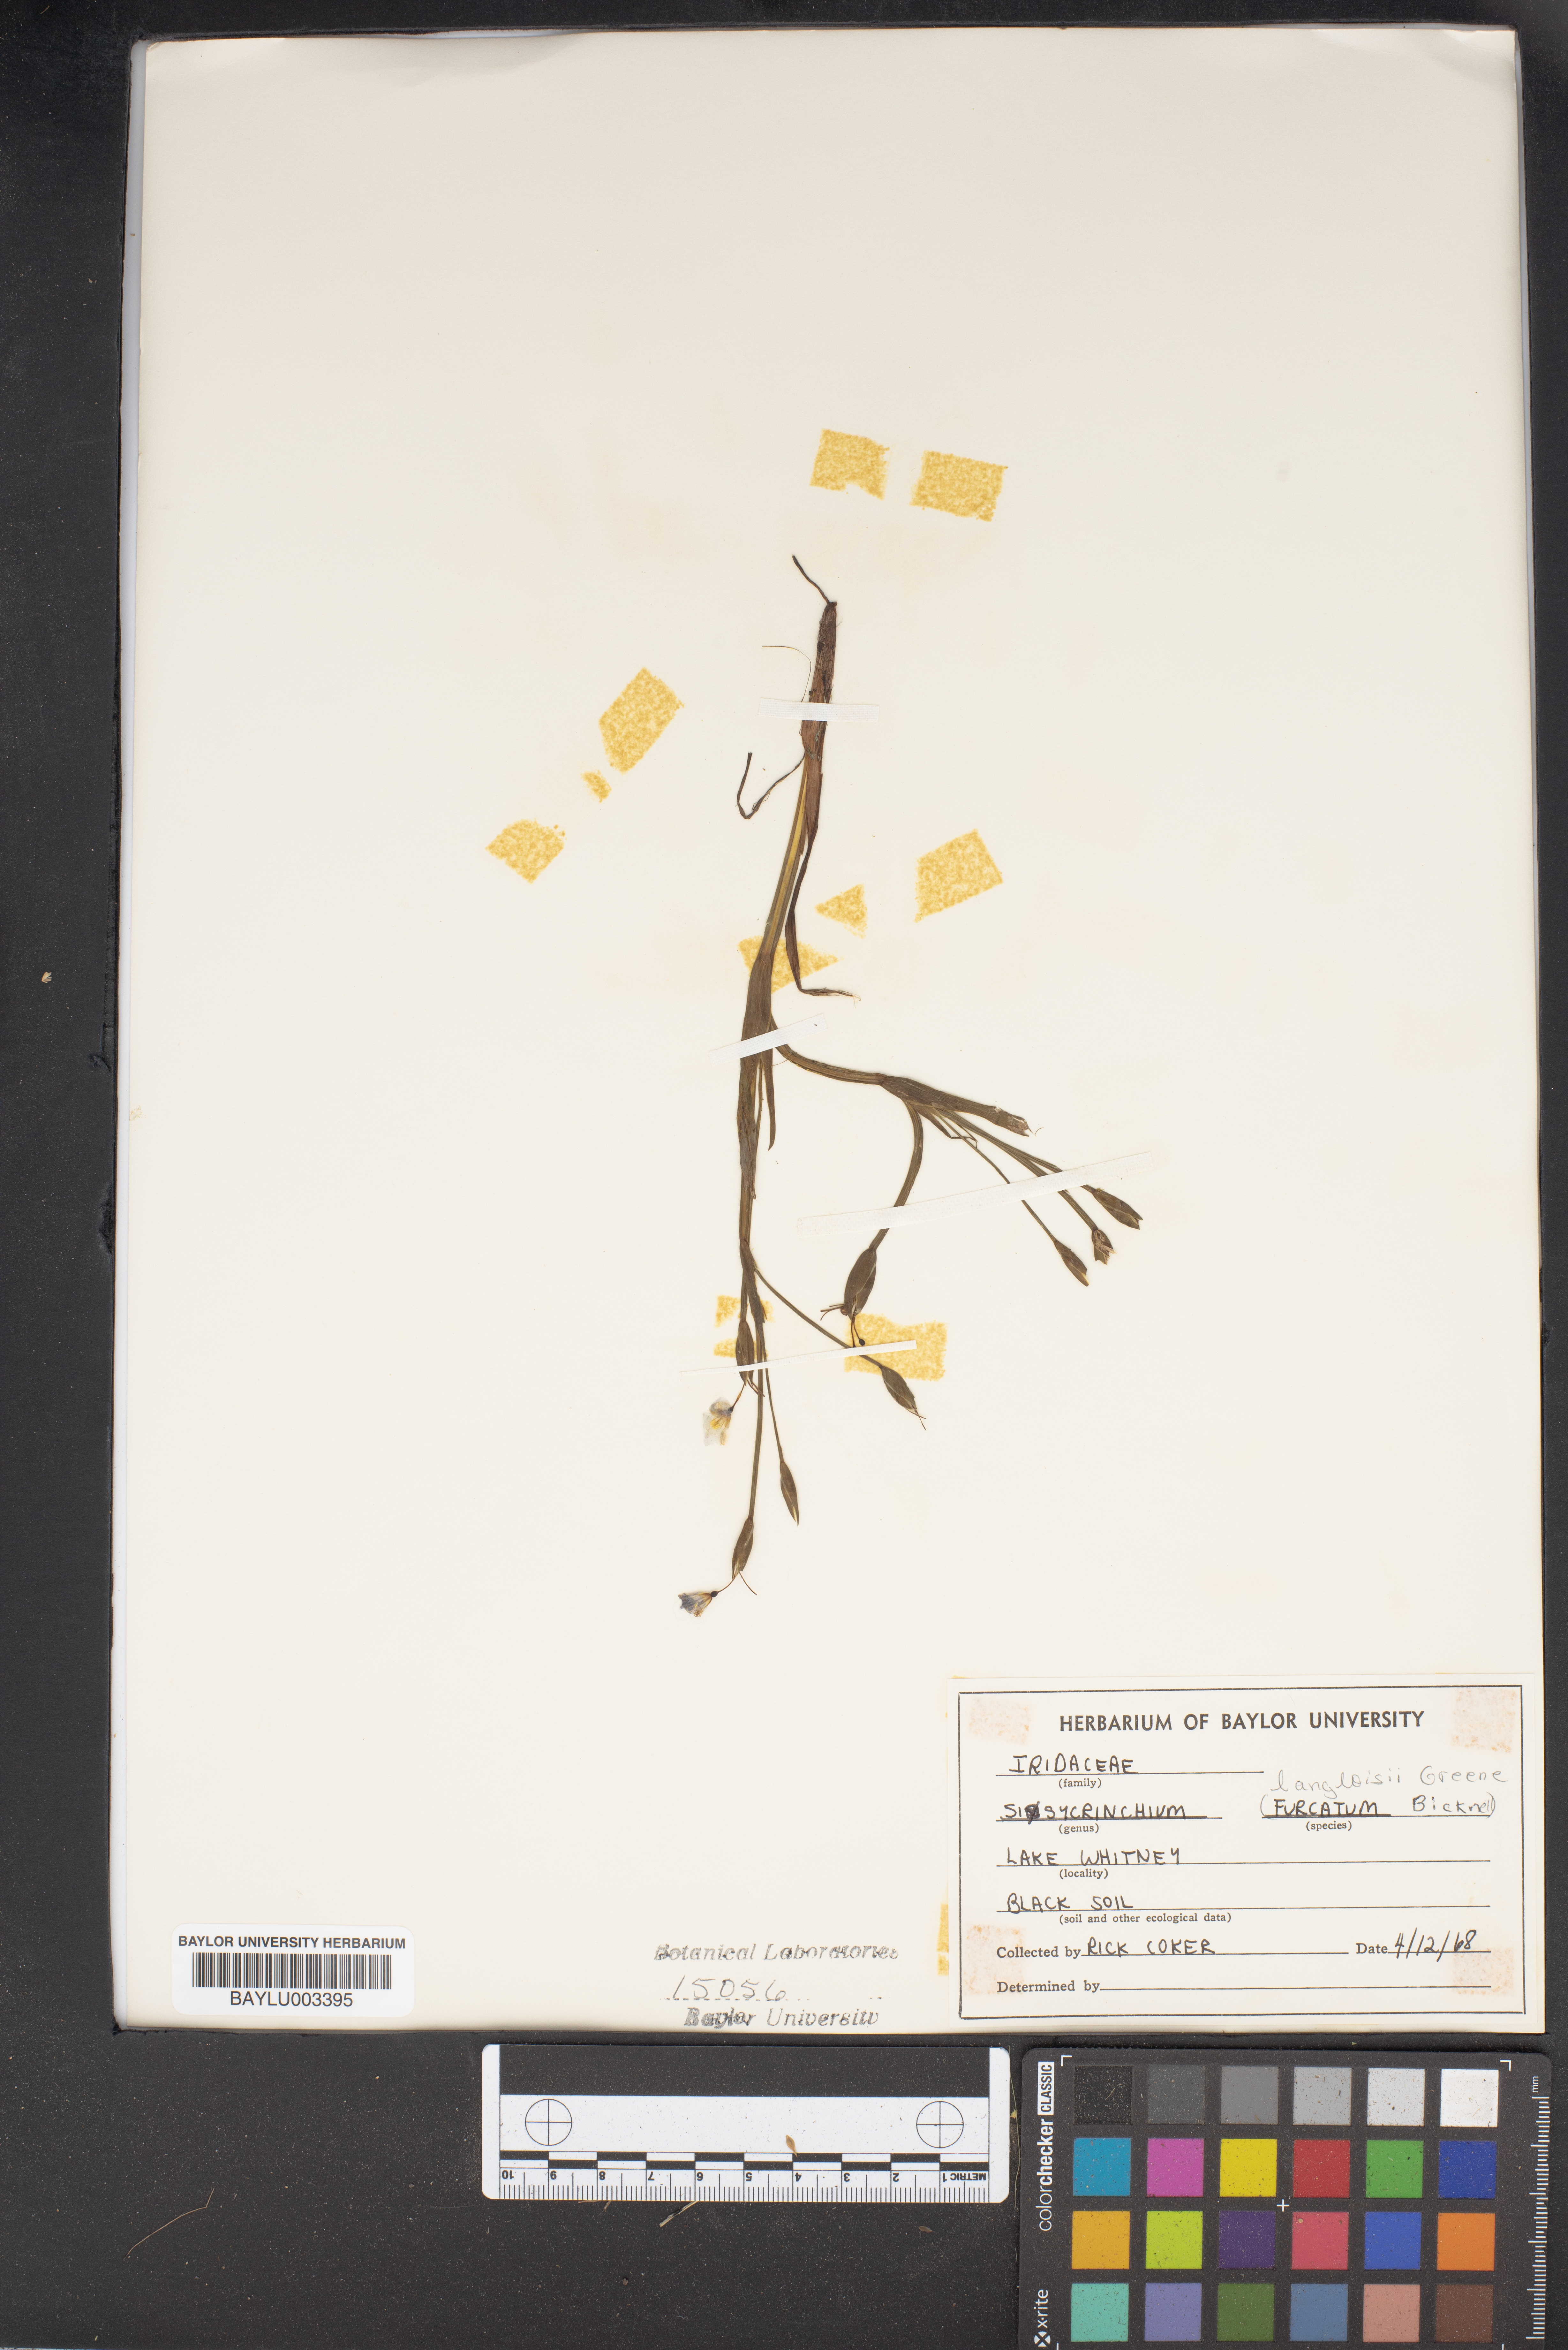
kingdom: Plantae
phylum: Tracheophyta
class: Liliopsida
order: Asparagales
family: Iridaceae
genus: Sisyrinchium
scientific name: Sisyrinchium fuscatum
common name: Coastal plain blue-eyed-grass
